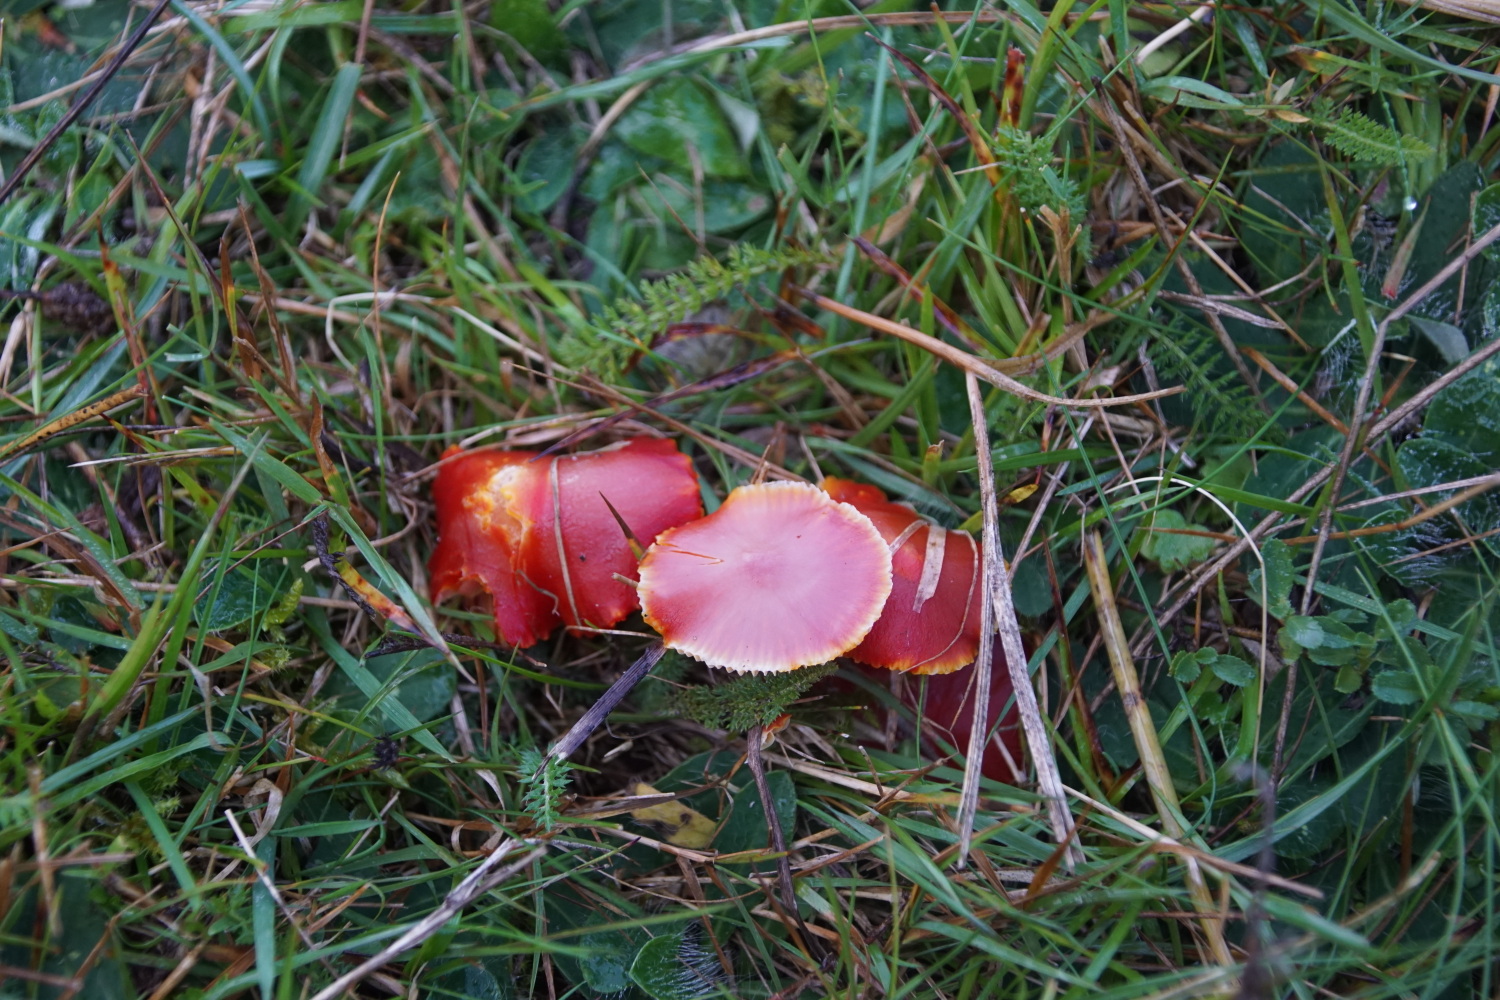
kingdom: Fungi
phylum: Basidiomycota
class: Agaricomycetes
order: Agaricales
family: Hygrophoraceae
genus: Hygrocybe
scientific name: Hygrocybe coccinea
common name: cinnober-vokshat
